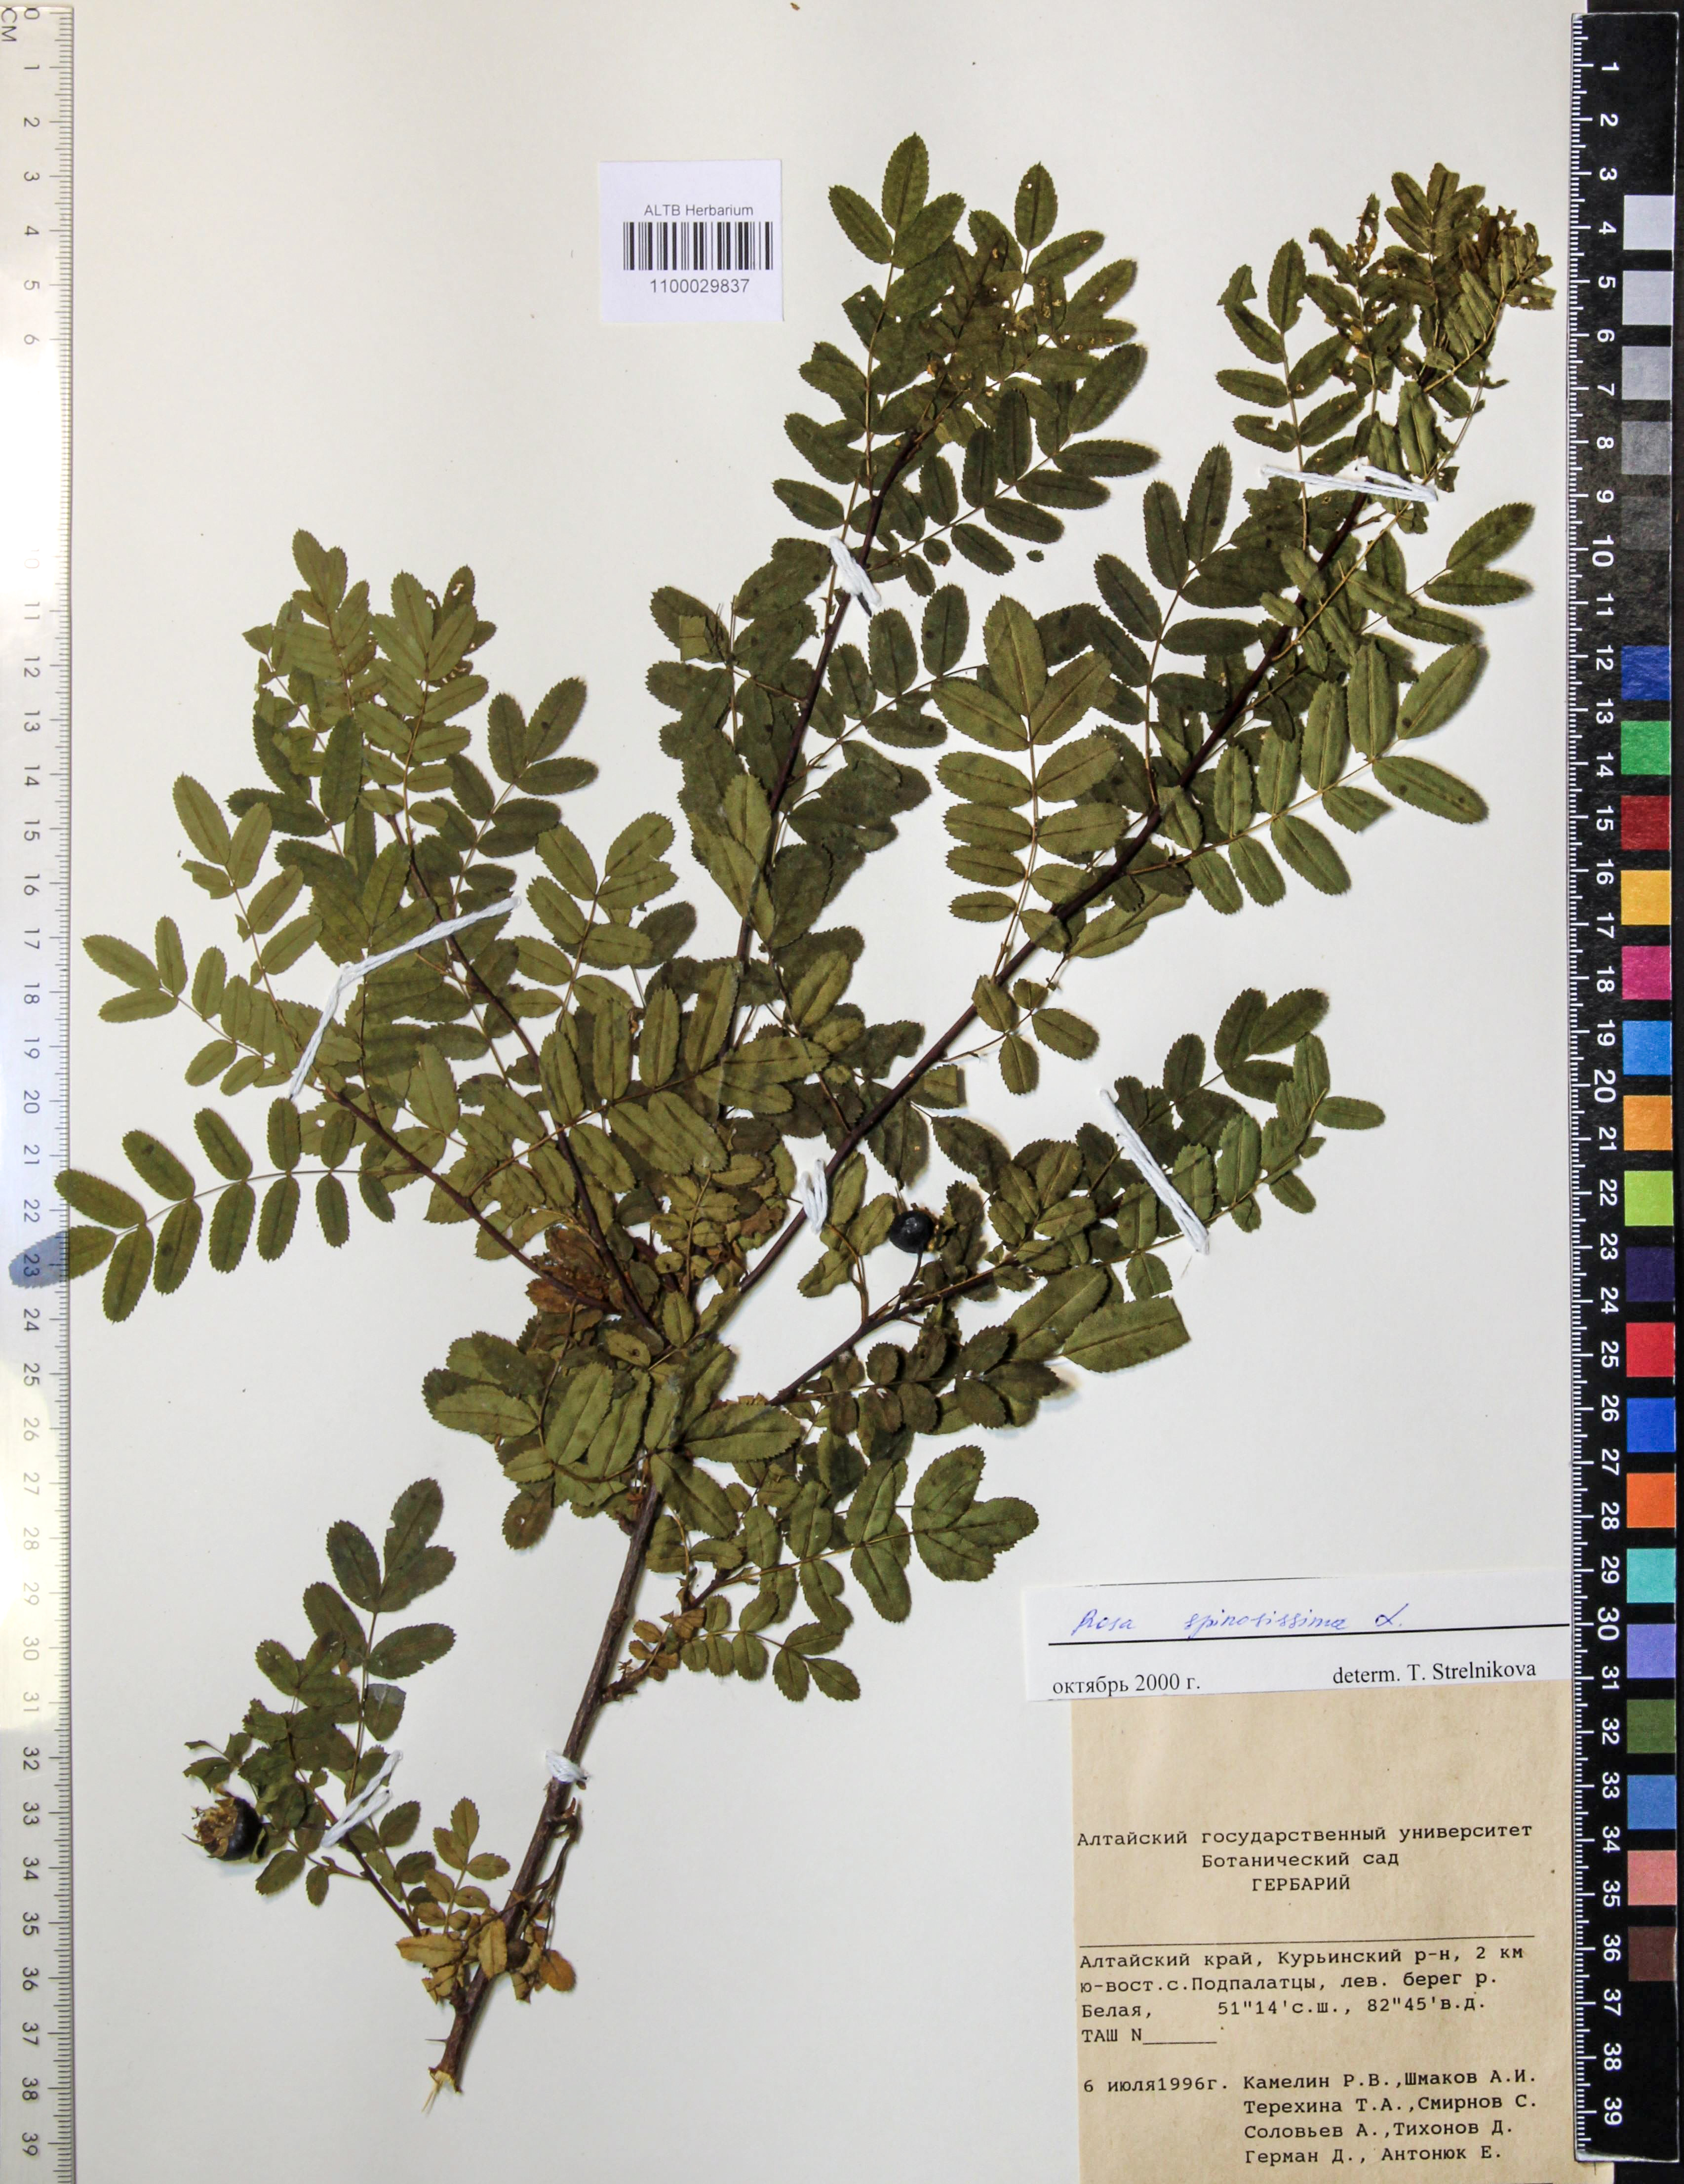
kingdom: Plantae
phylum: Tracheophyta
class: Magnoliopsida
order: Rosales
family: Rosaceae
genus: Rosa
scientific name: Rosa spinosissima
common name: Burnet rose
